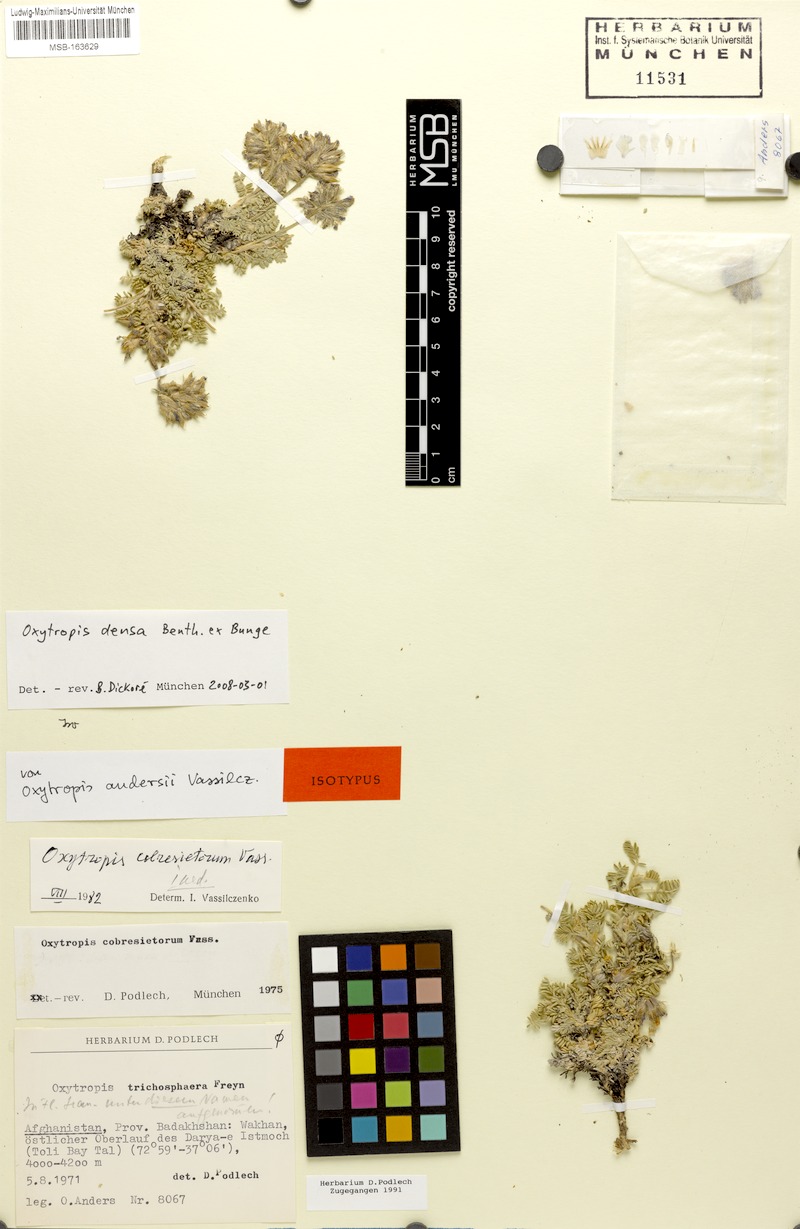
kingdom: Plantae
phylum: Tracheophyta
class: Magnoliopsida
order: Fabales
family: Fabaceae
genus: Oxytropis
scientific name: Oxytropis densa
